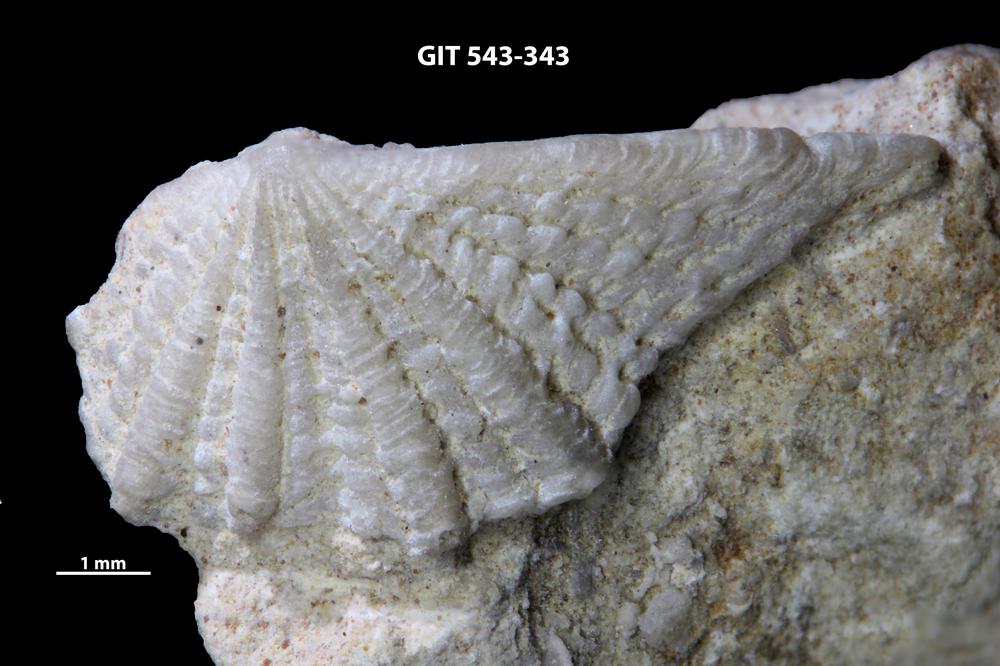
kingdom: Animalia
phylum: Brachiopoda
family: Kullervoidae
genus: Kullervo
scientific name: Kullervo lacunata
